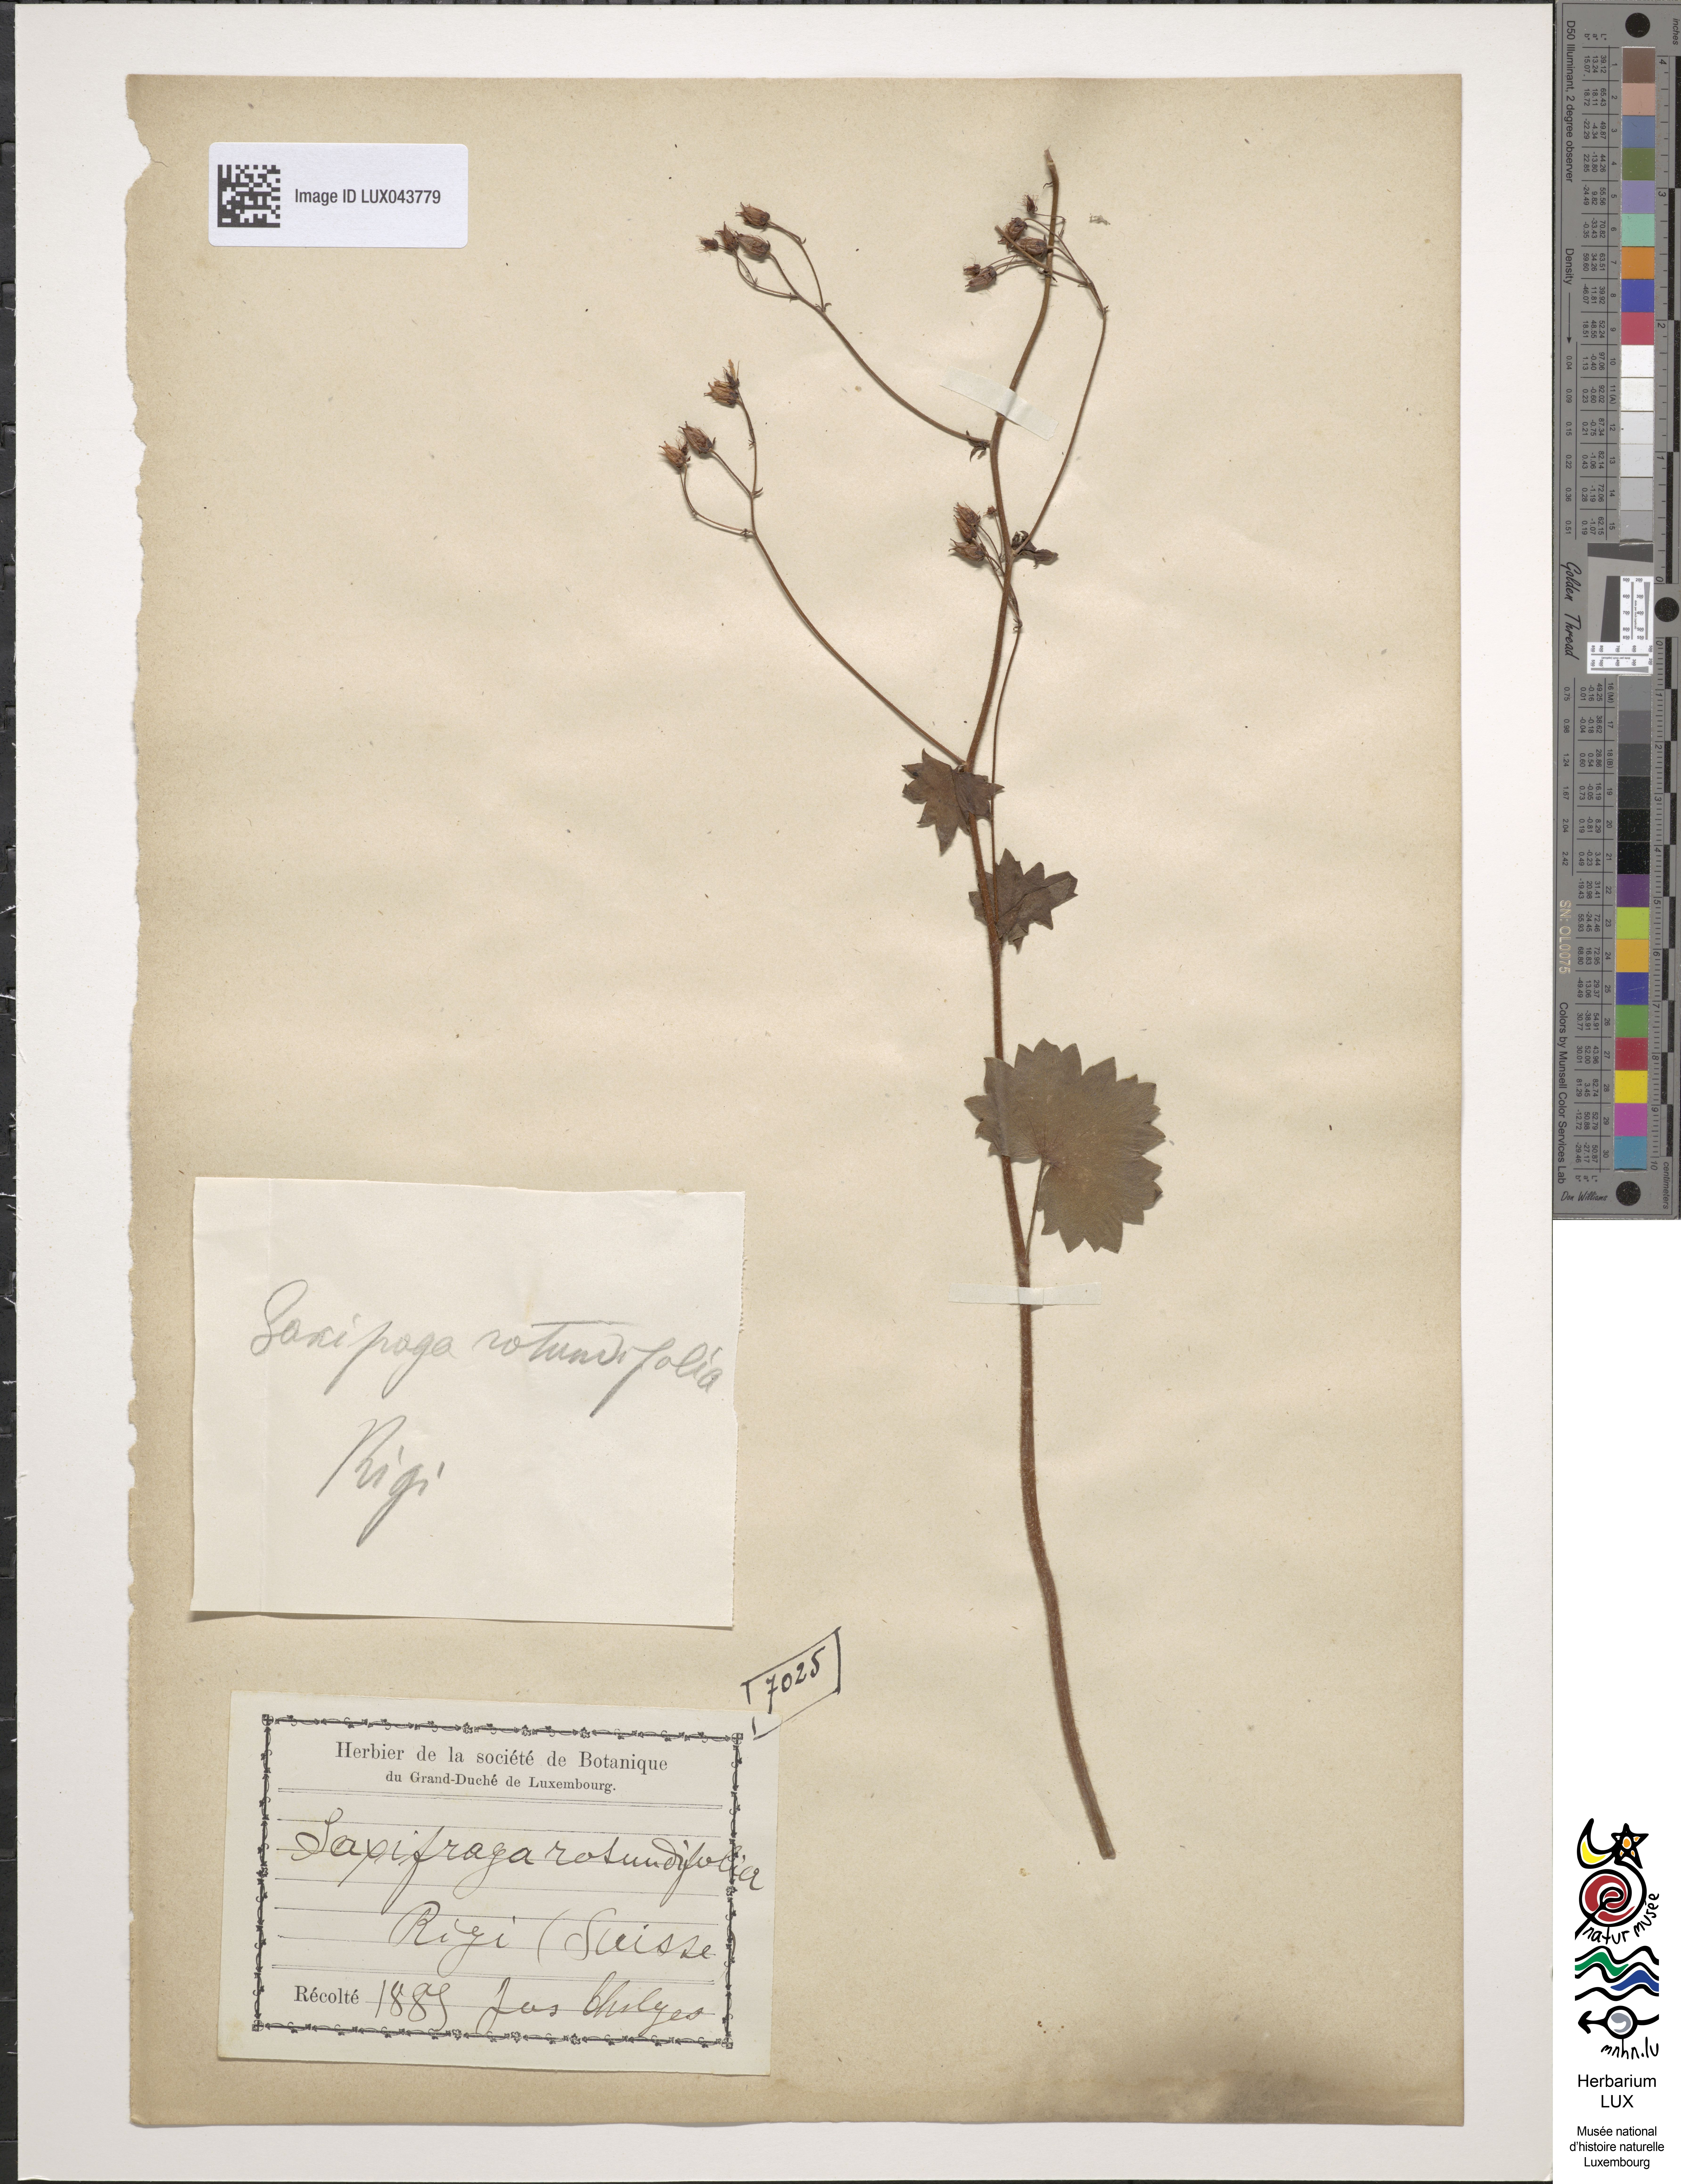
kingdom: Plantae
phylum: Tracheophyta
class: Magnoliopsida
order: Saxifragales
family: Saxifragaceae
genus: Saxifraga
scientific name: Saxifraga rotundifolia
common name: Round-leaved saxifrage
